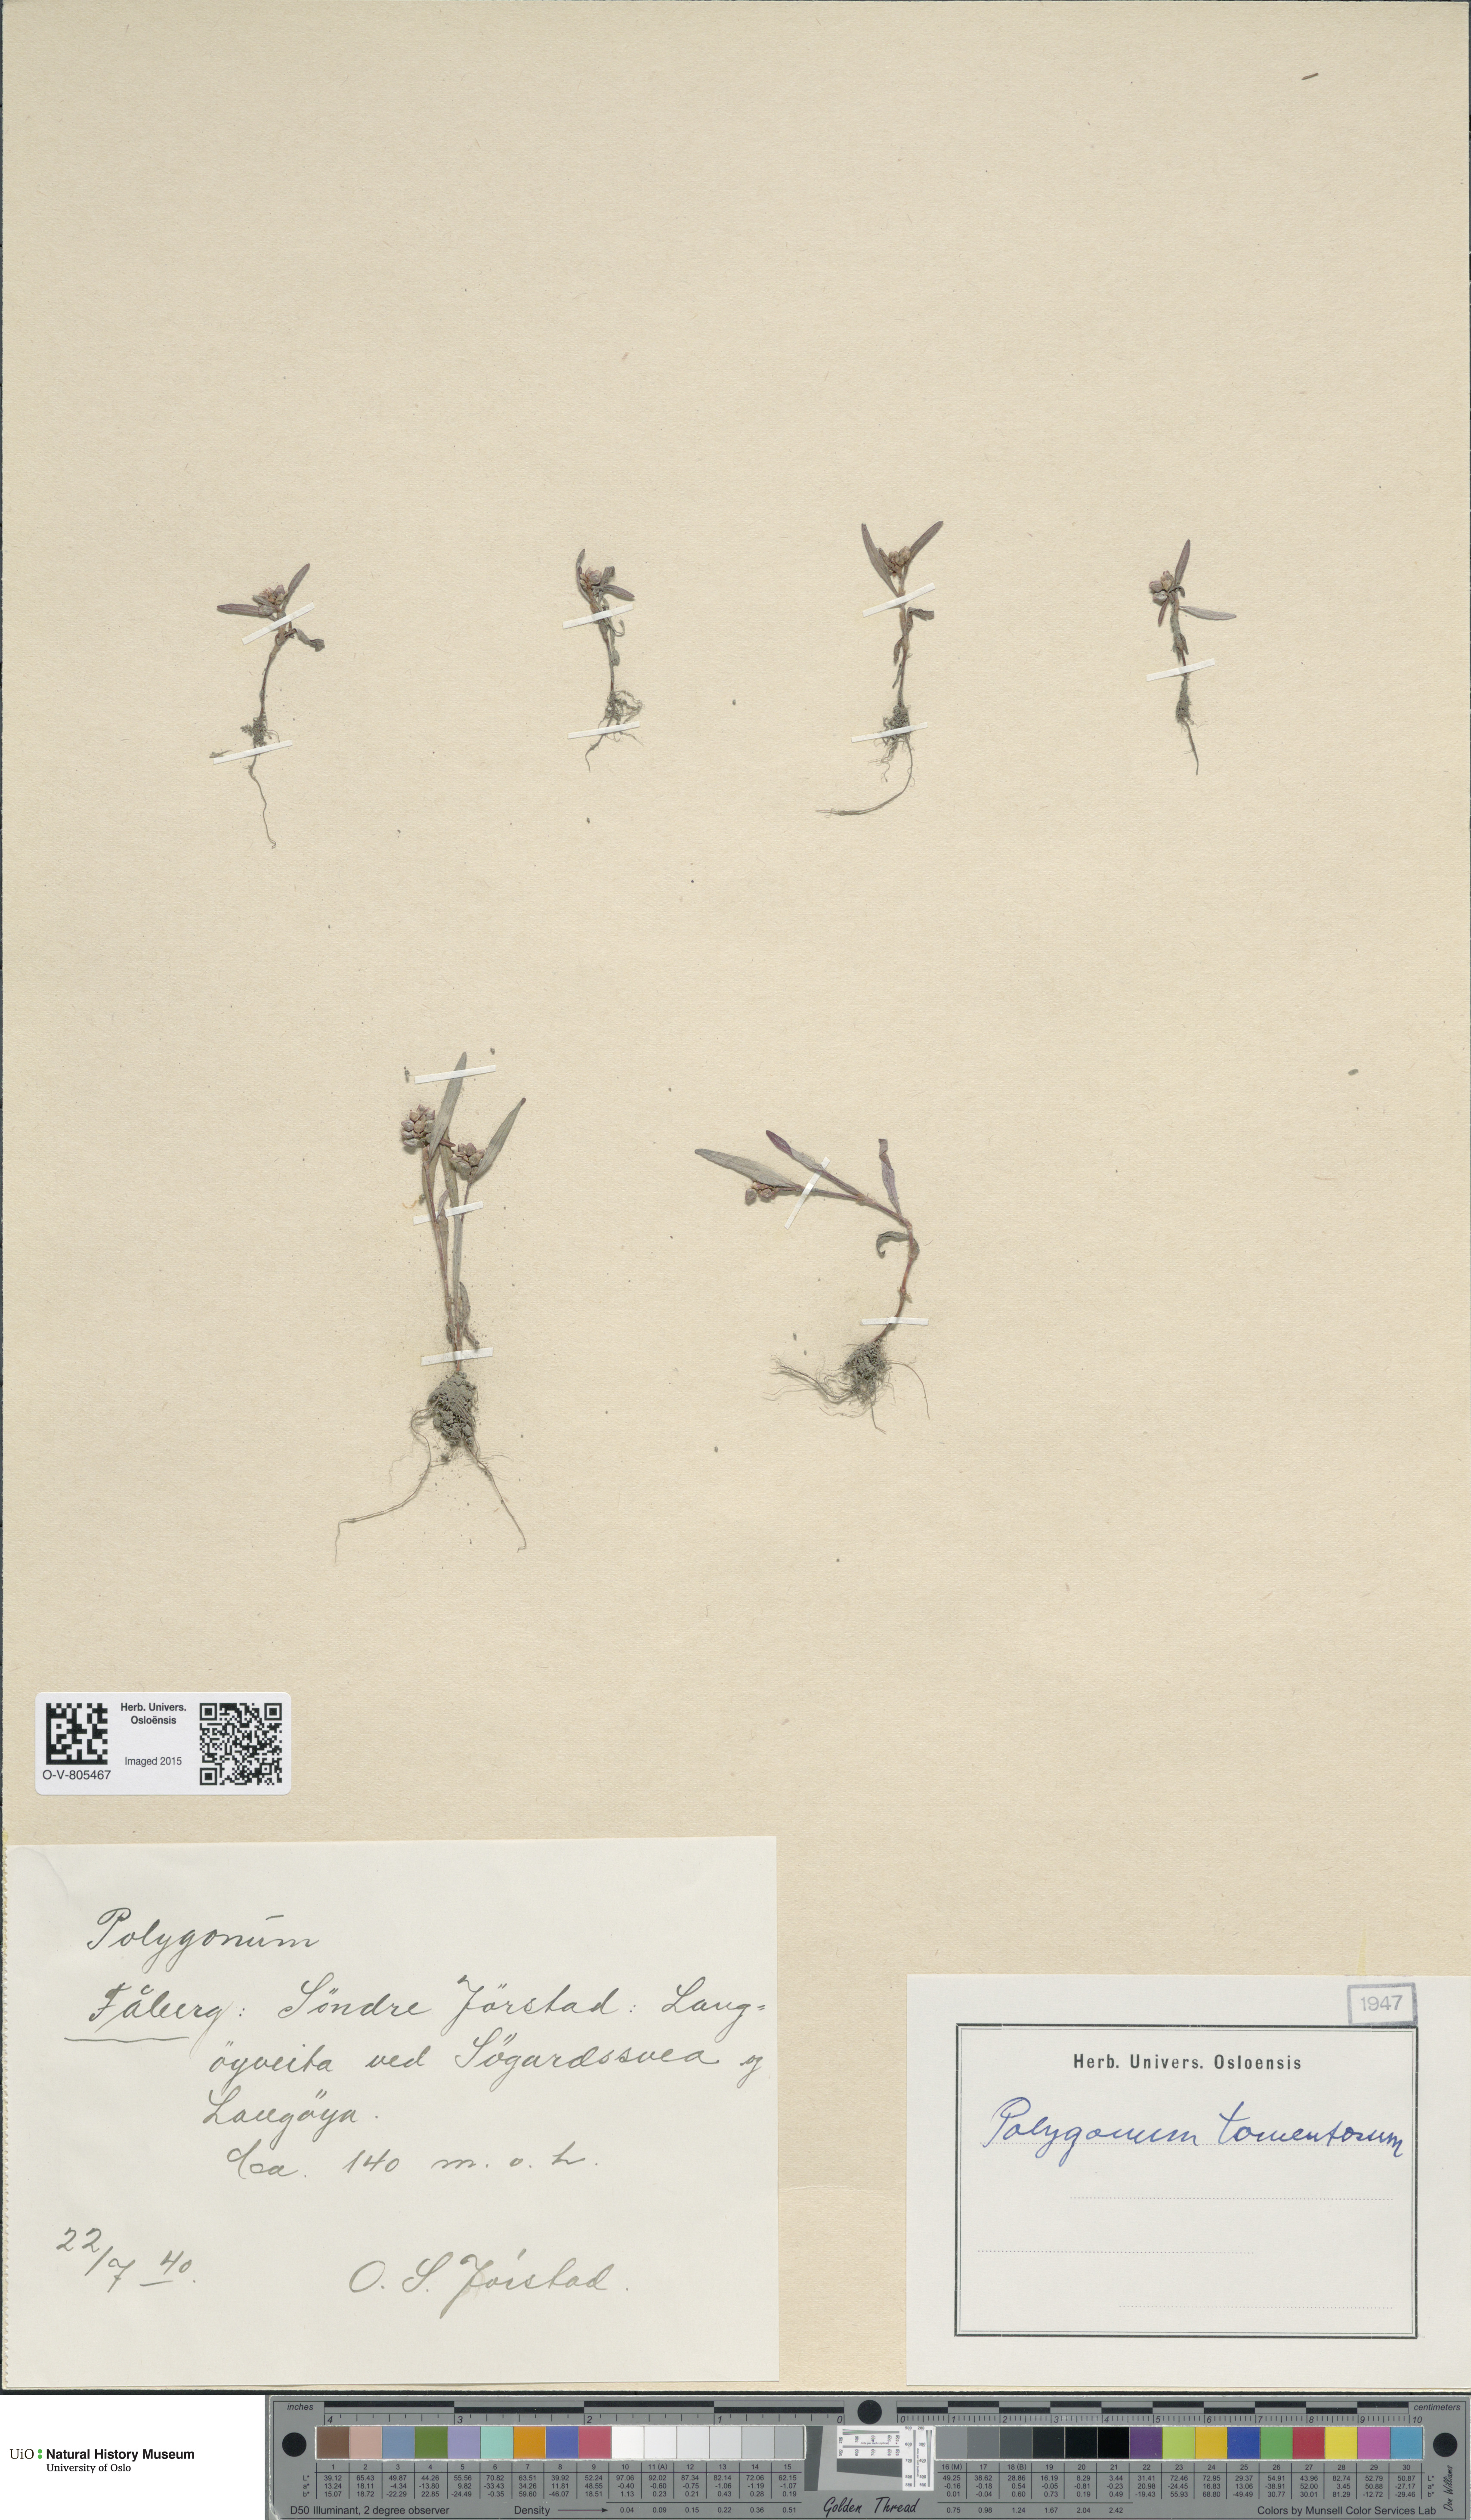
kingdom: Plantae
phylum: Tracheophyta
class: Magnoliopsida
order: Caryophyllales
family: Polygonaceae
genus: Persicaria
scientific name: Persicaria lapathifolia
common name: Curlytop knotweed
